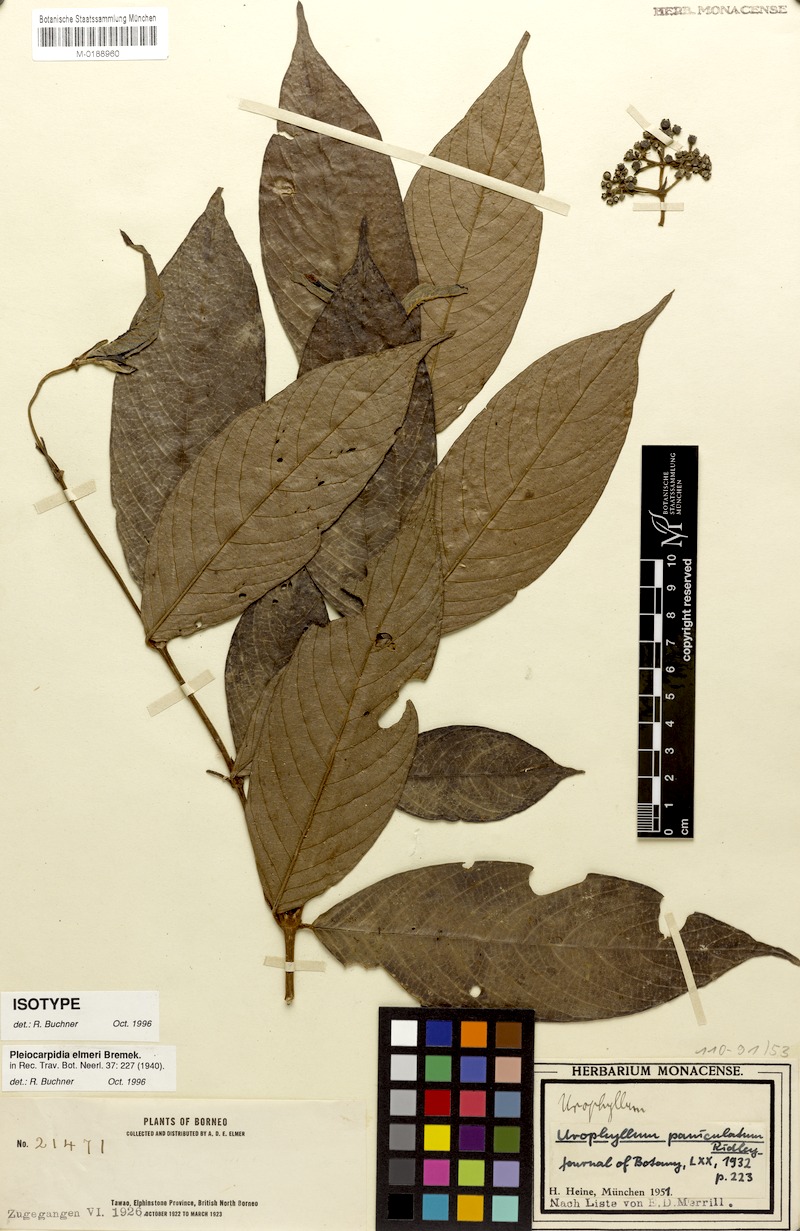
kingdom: Plantae
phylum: Tracheophyta
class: Magnoliopsida
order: Gentianales
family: Rubiaceae
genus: Urophyllum
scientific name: Urophyllum elmeri
